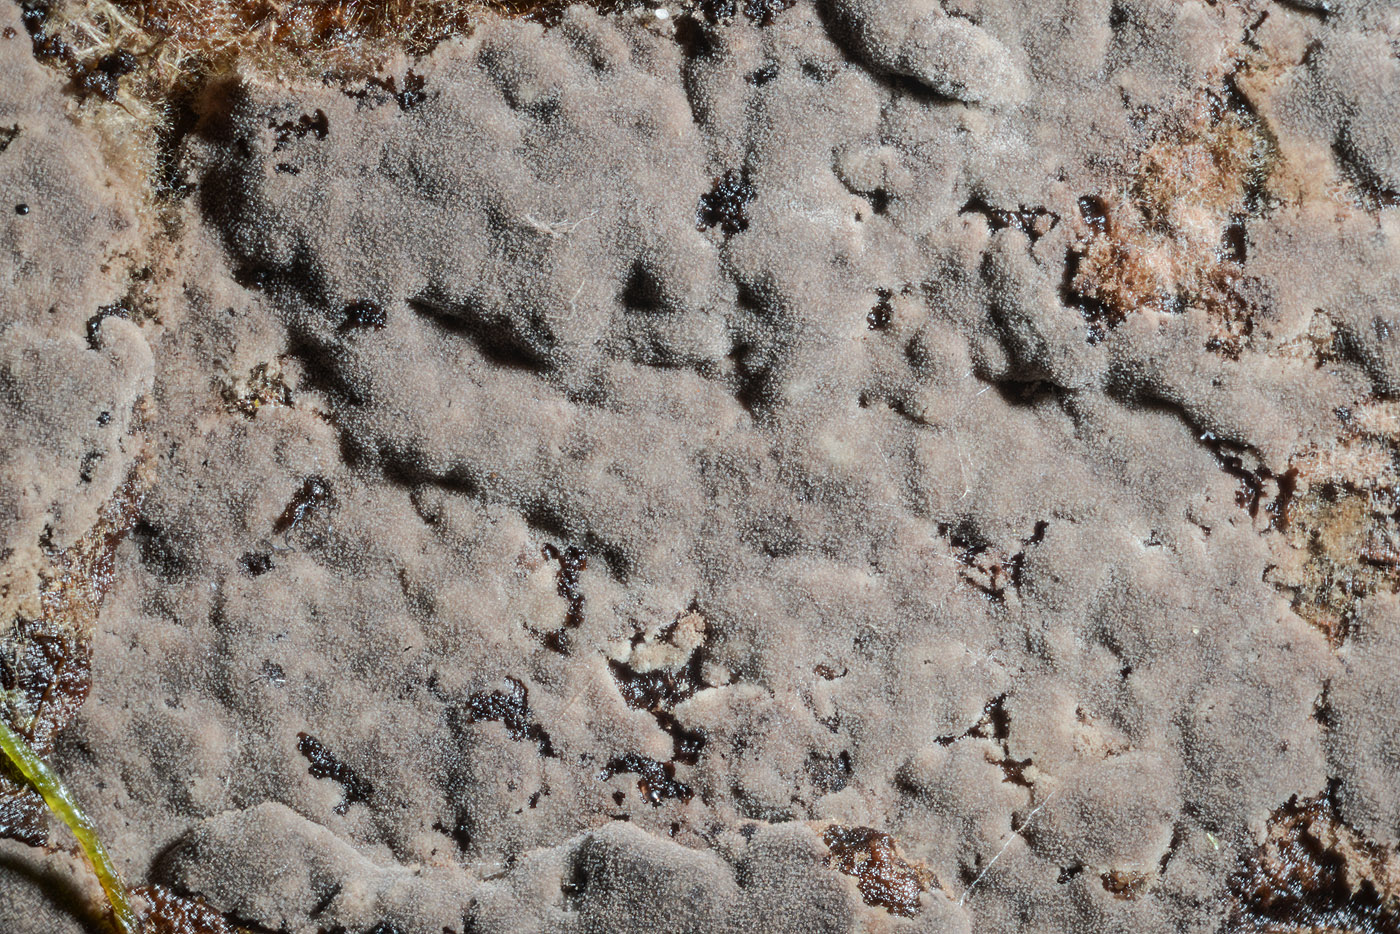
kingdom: Fungi
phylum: Basidiomycota
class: Agaricomycetes
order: Thelephorales
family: Thelephoraceae
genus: Polyozellus
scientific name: Polyozellus umbrinus
